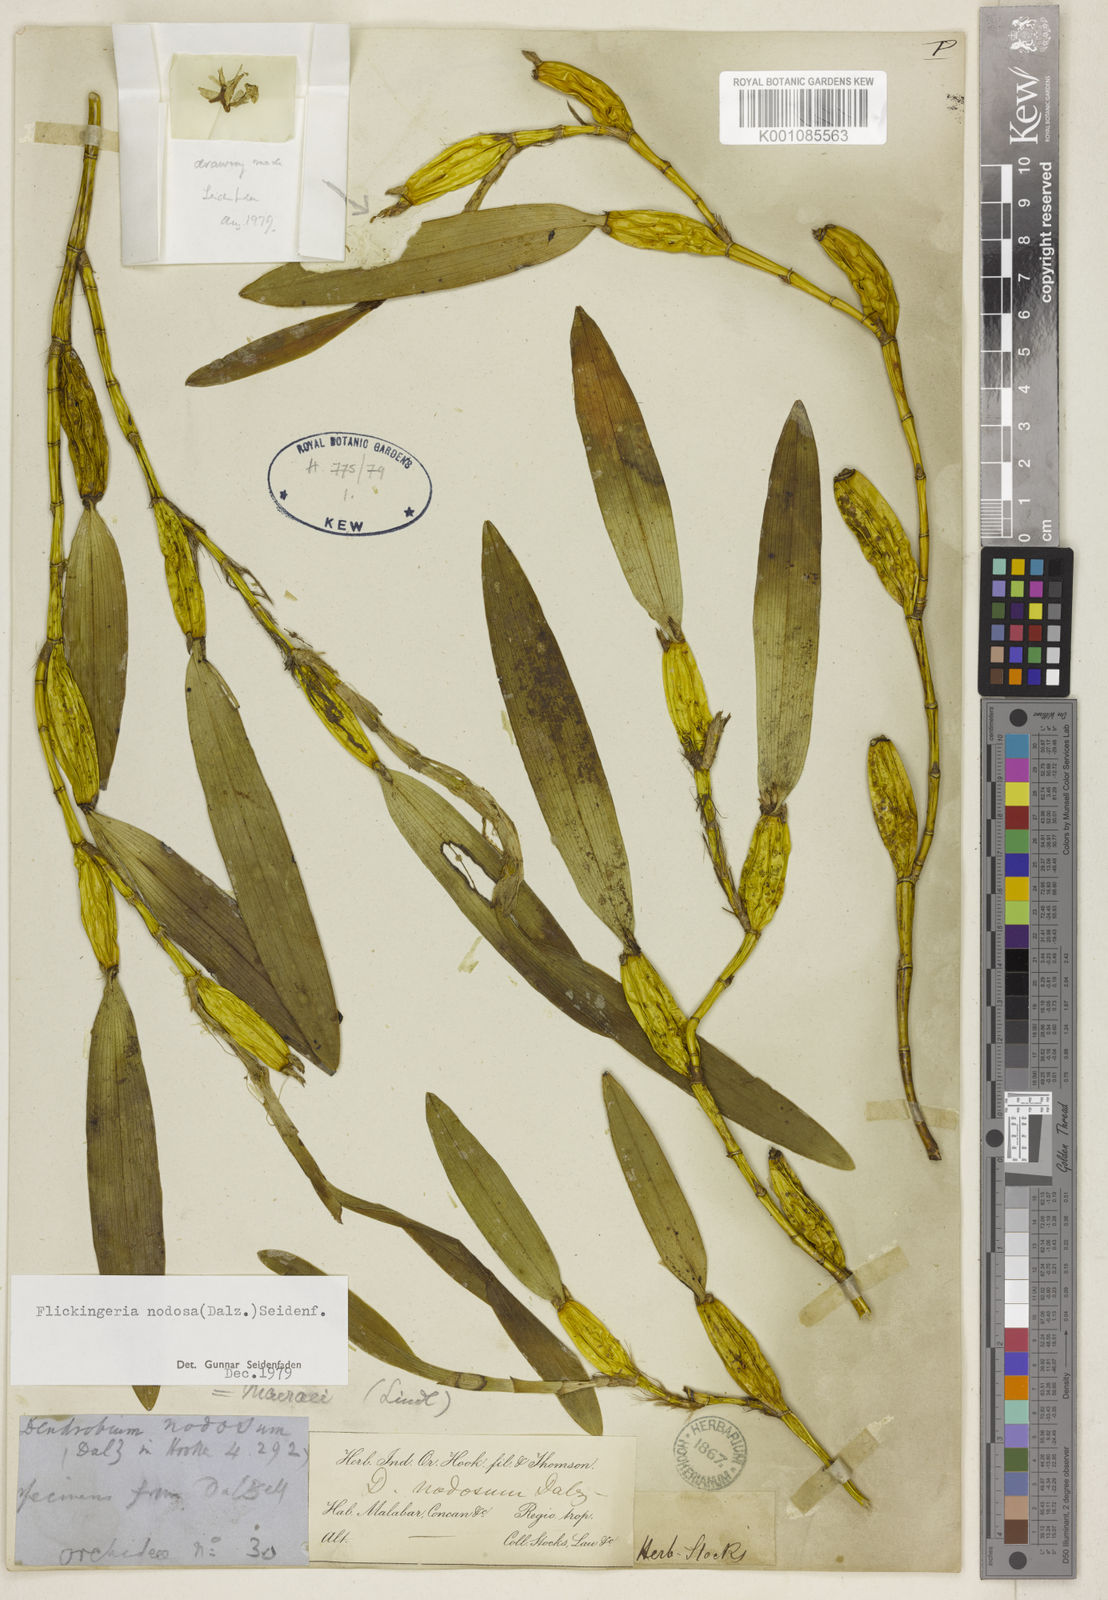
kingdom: Plantae
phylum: Tracheophyta
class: Liliopsida
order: Asparagales
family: Orchidaceae
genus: Dendrobium
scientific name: Dendrobium macraei
